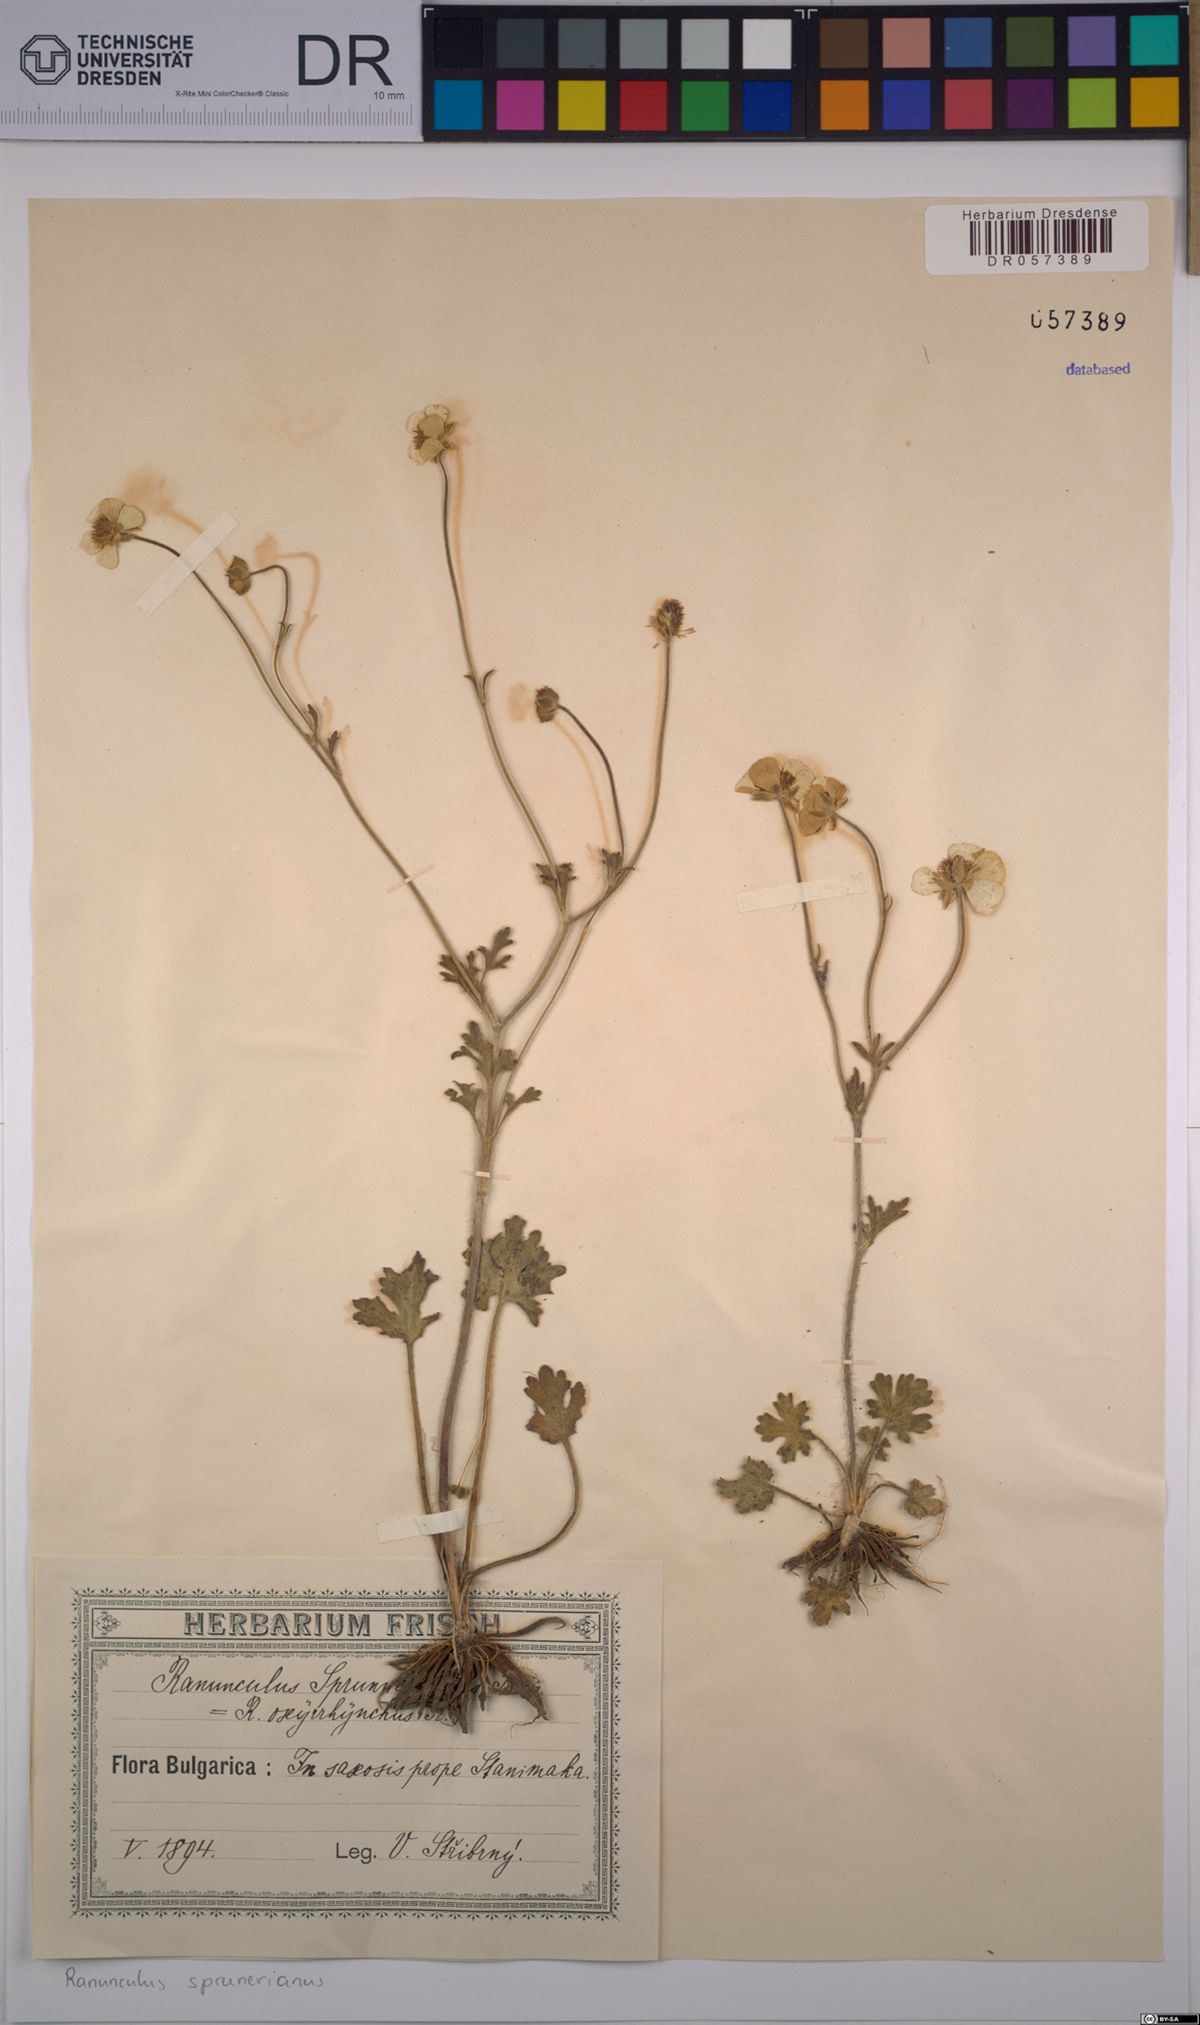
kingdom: Plantae
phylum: Tracheophyta
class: Magnoliopsida
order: Ranunculales
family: Ranunculaceae
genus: Ranunculus
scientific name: Ranunculus sprunerianus
